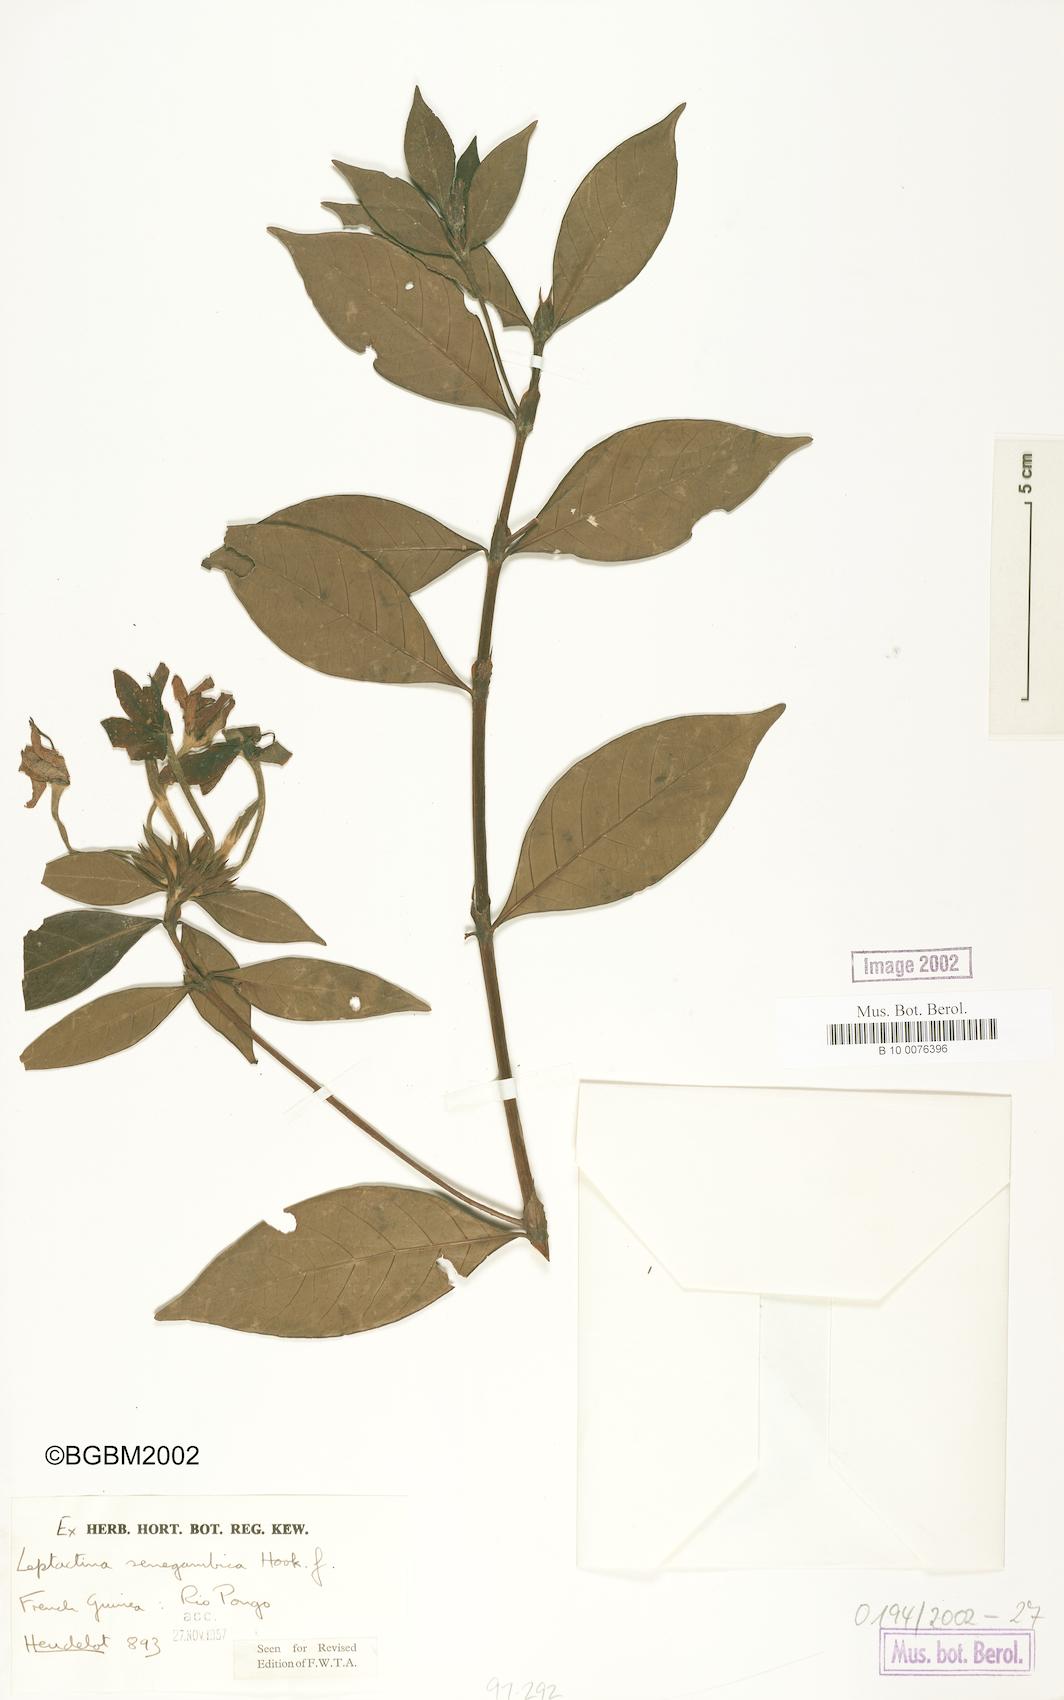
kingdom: Plantae
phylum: Tracheophyta
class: Magnoliopsida
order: Gentianales
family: Rubiaceae
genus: Leptactina
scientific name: Leptactina senegambica
